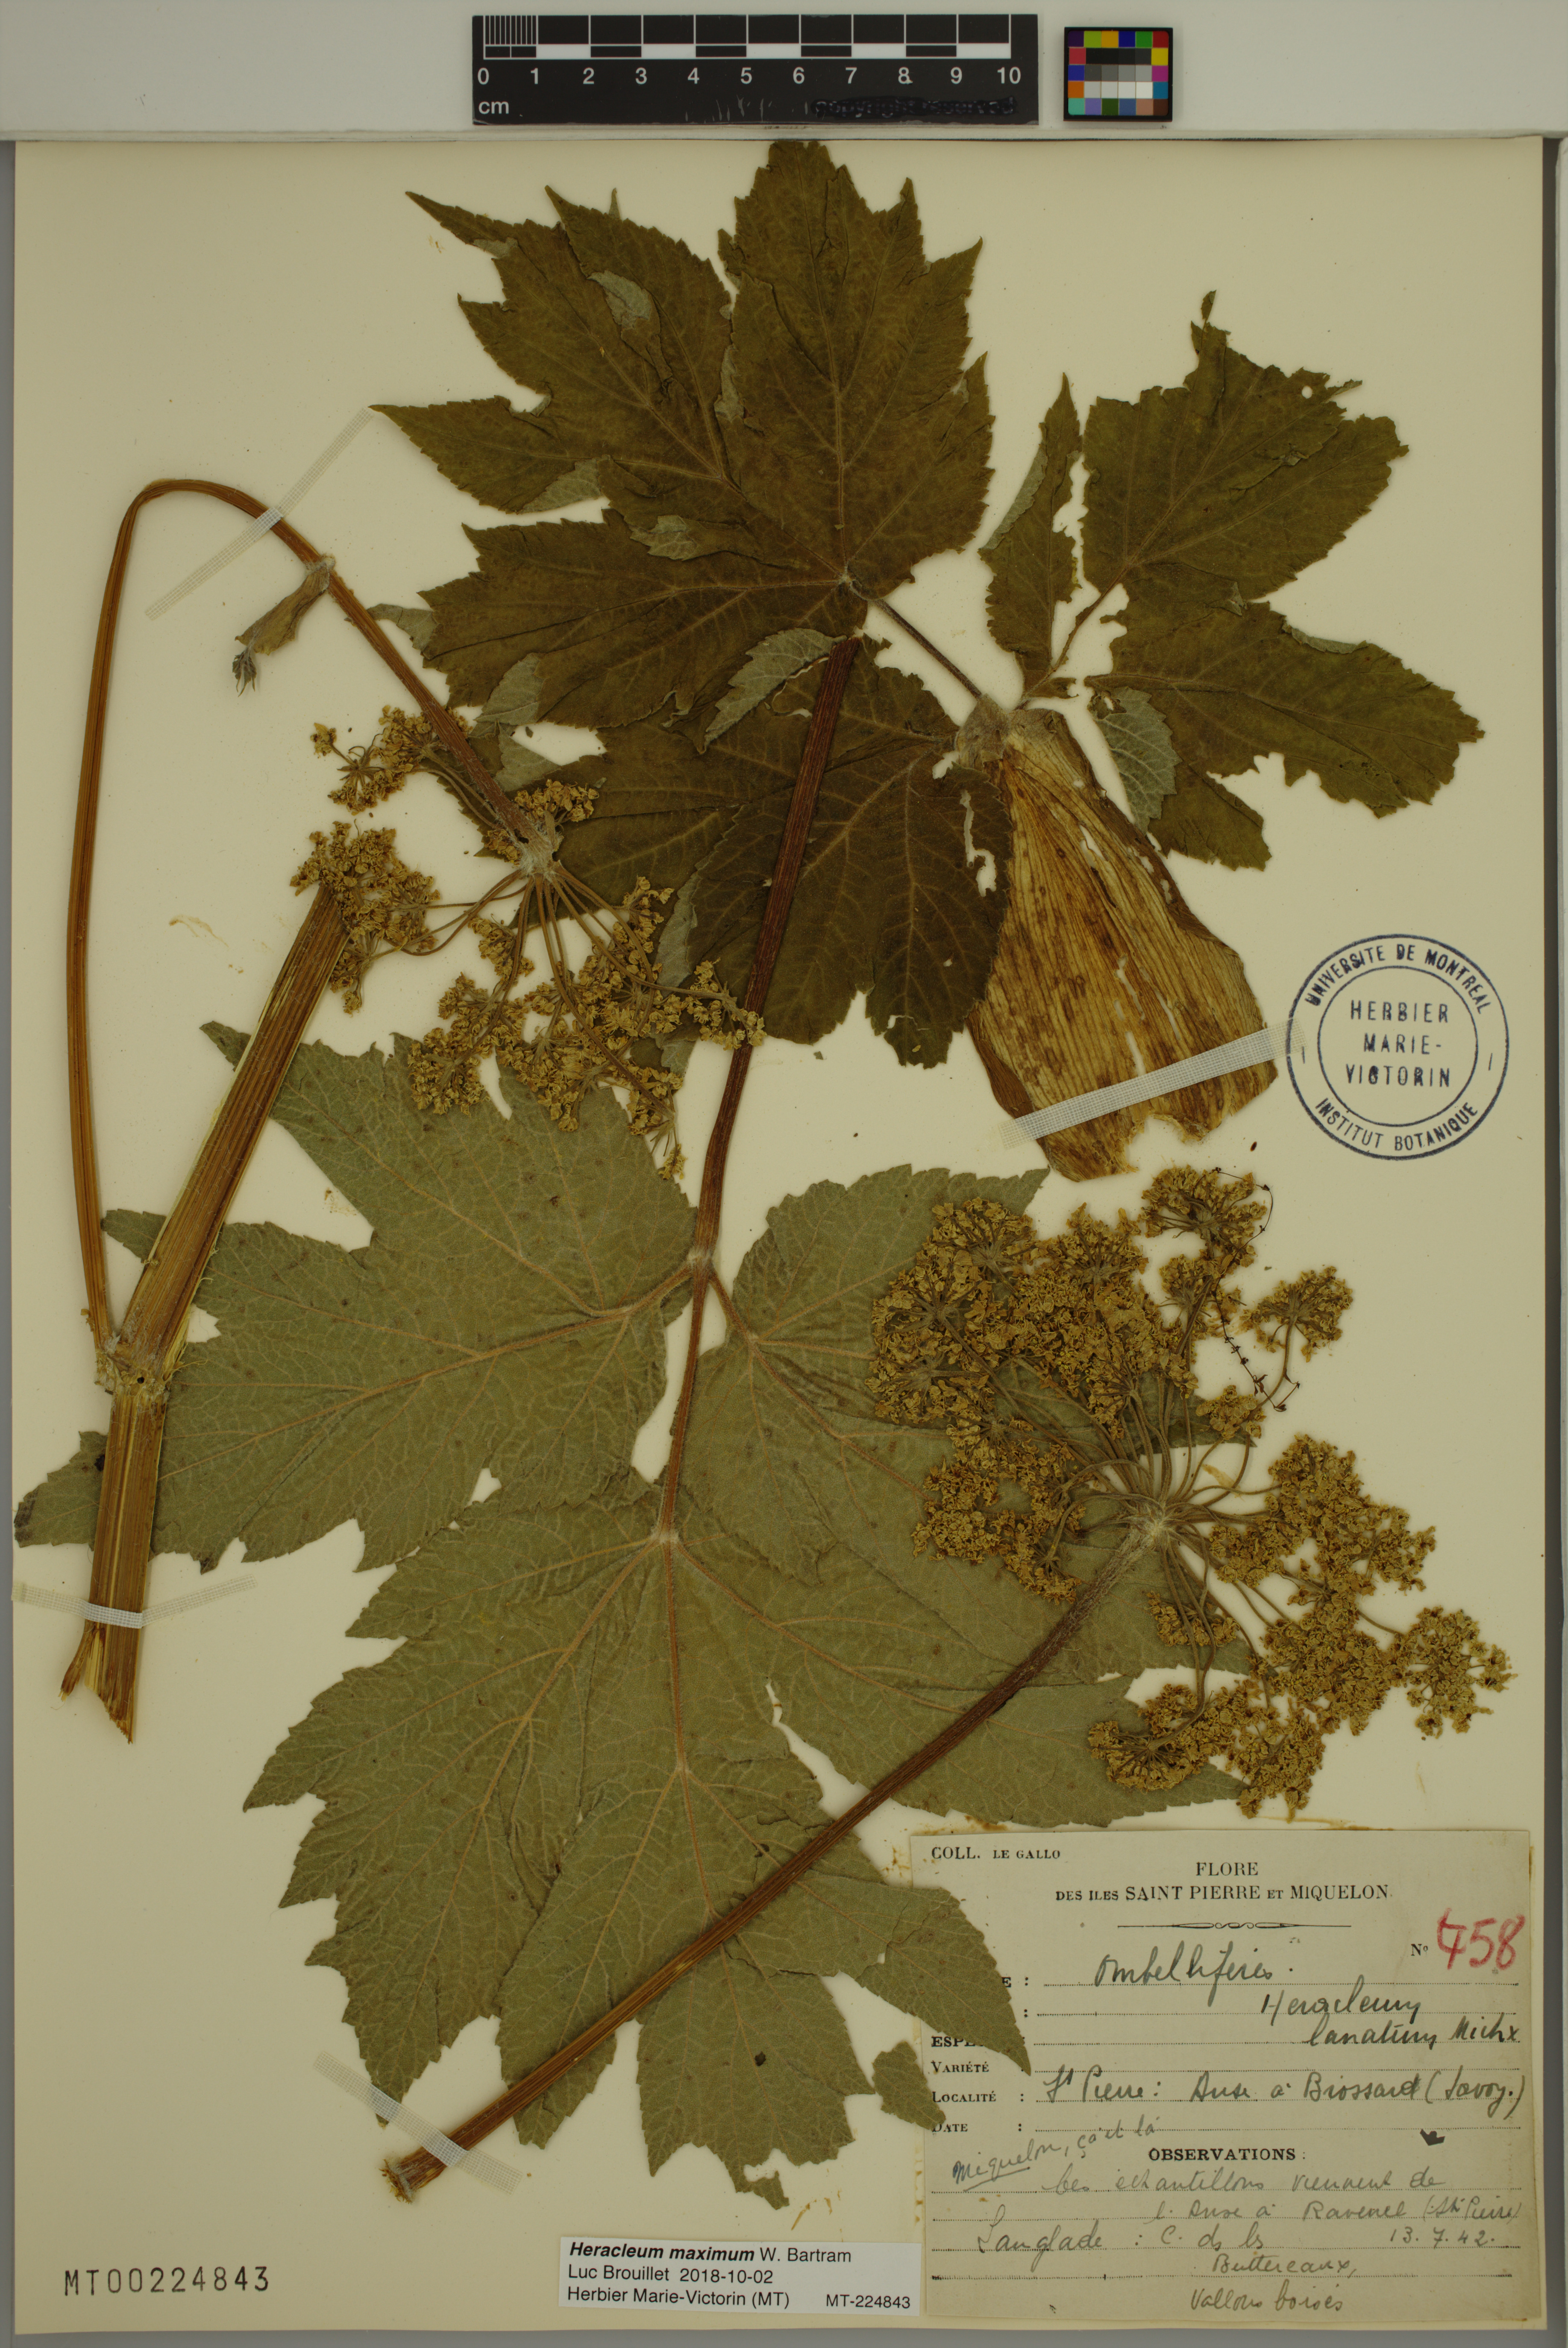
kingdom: Plantae
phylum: Tracheophyta
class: Magnoliopsida
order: Apiales
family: Apiaceae
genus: Heracleum
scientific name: Heracleum maximum
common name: American cow parsnip
